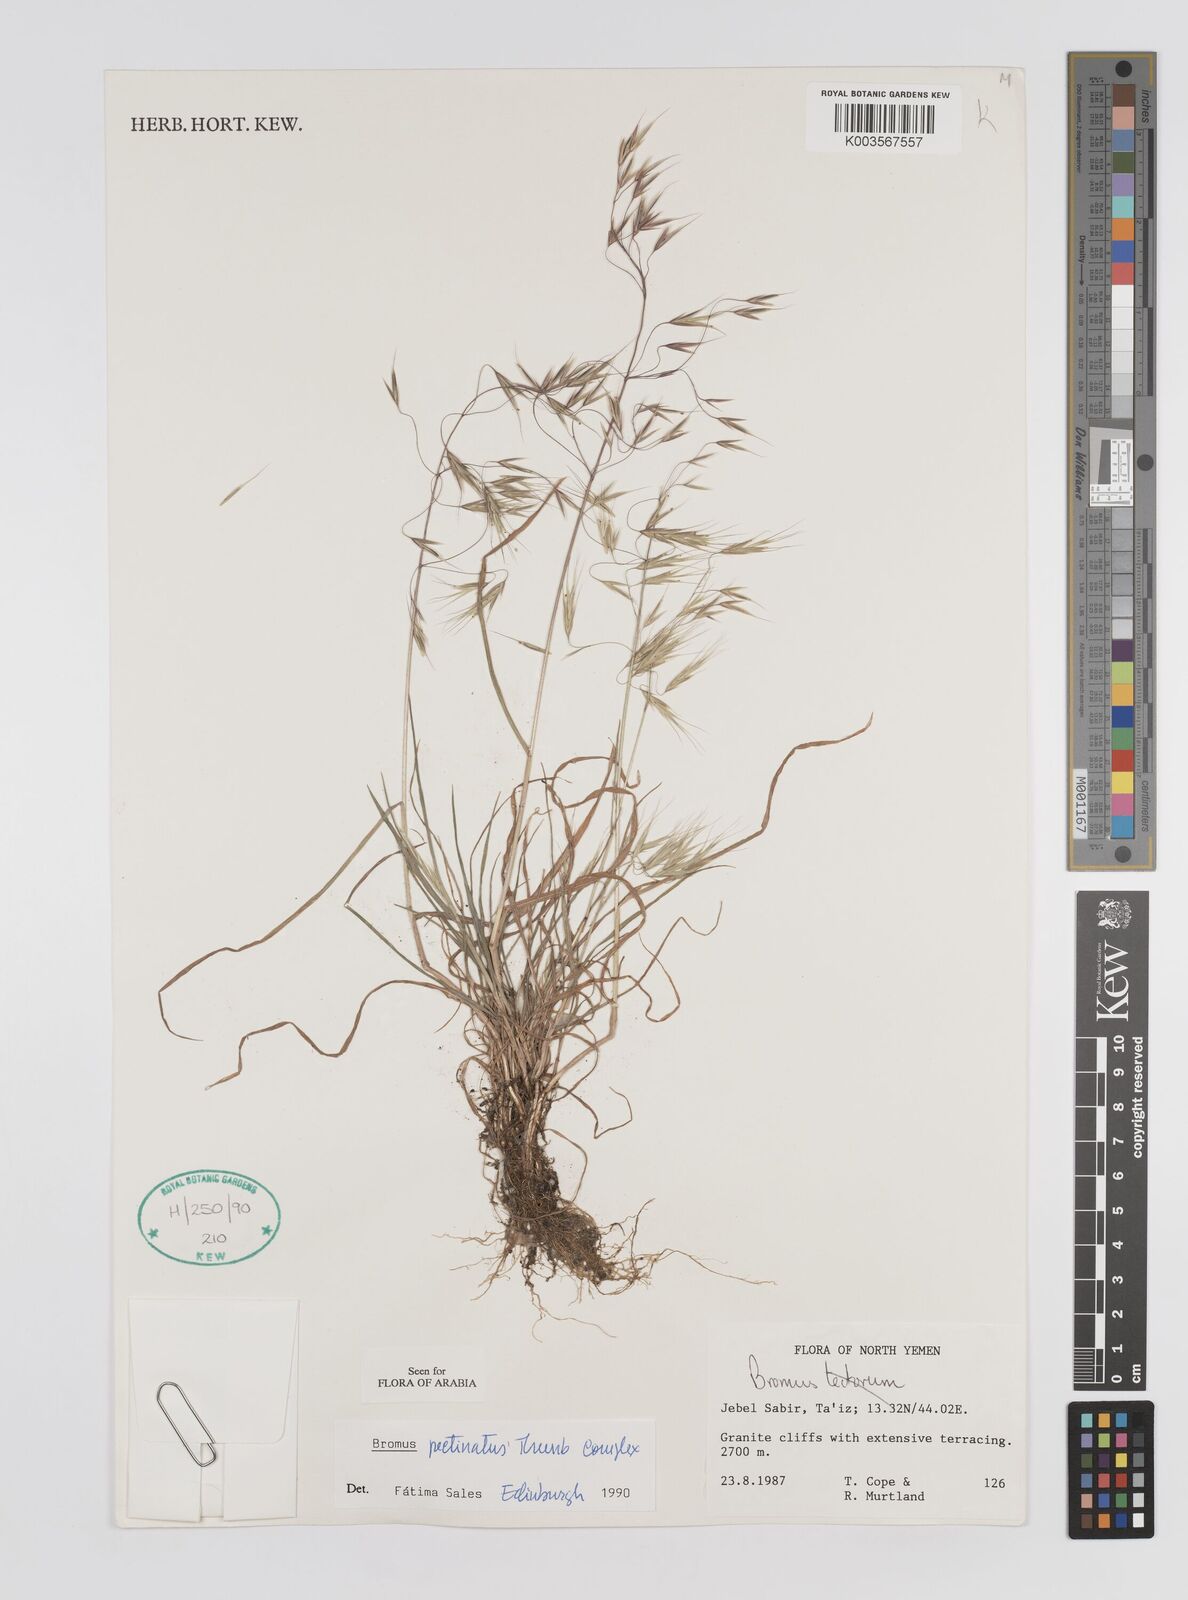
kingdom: Plantae
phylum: Tracheophyta
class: Liliopsida
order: Poales
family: Poaceae
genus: Bromus
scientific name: Bromus pectinatus
